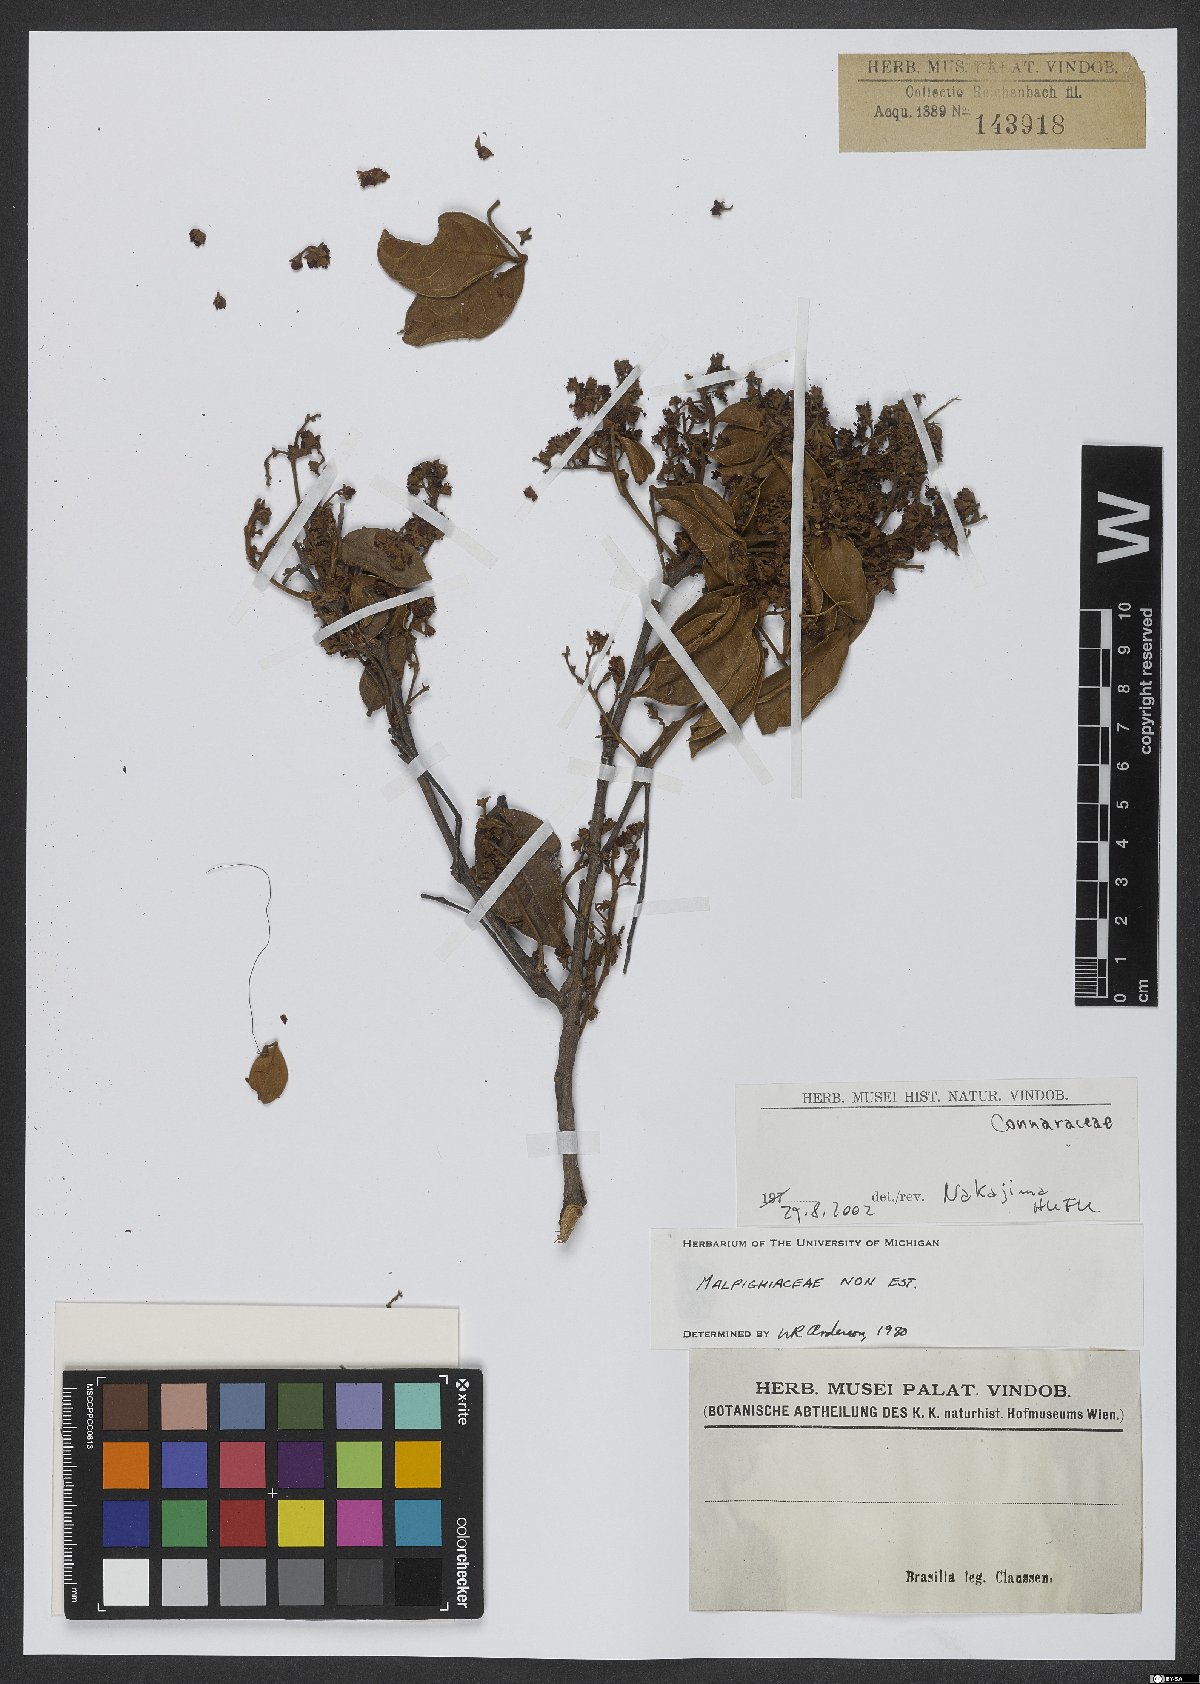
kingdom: Plantae
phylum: Tracheophyta
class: Magnoliopsida
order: Oxalidales
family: Connaraceae
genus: Rourea
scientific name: Rourea induta
